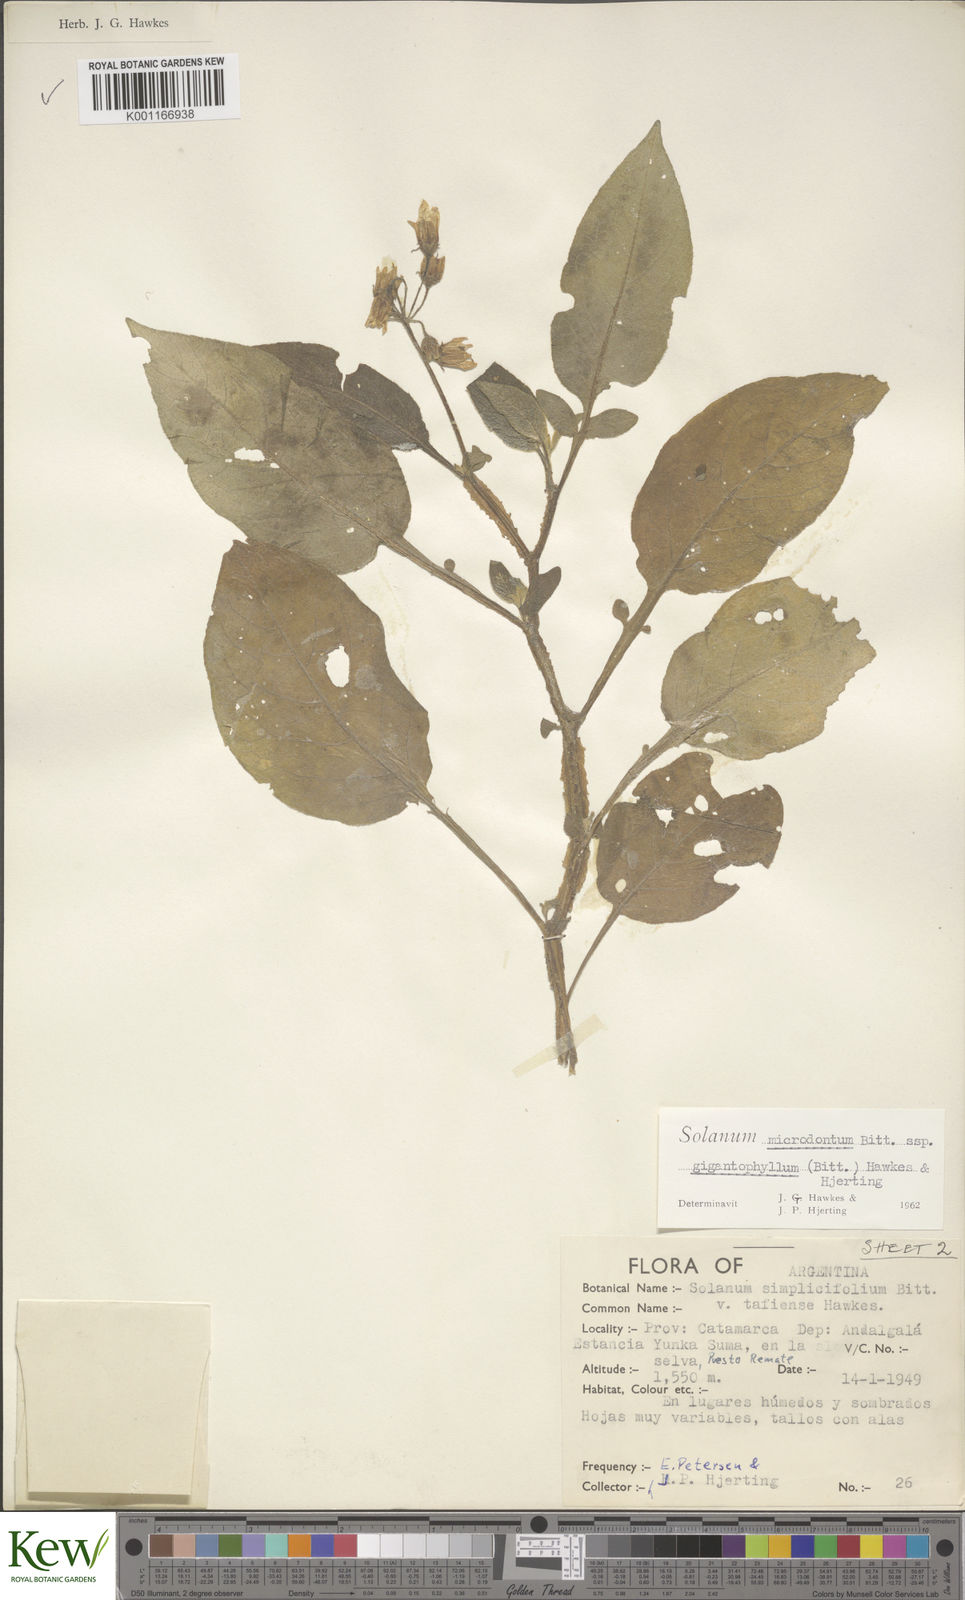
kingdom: Plantae
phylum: Tracheophyta
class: Magnoliopsida
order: Solanales
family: Solanaceae
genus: Solanum
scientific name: Solanum microdontum
